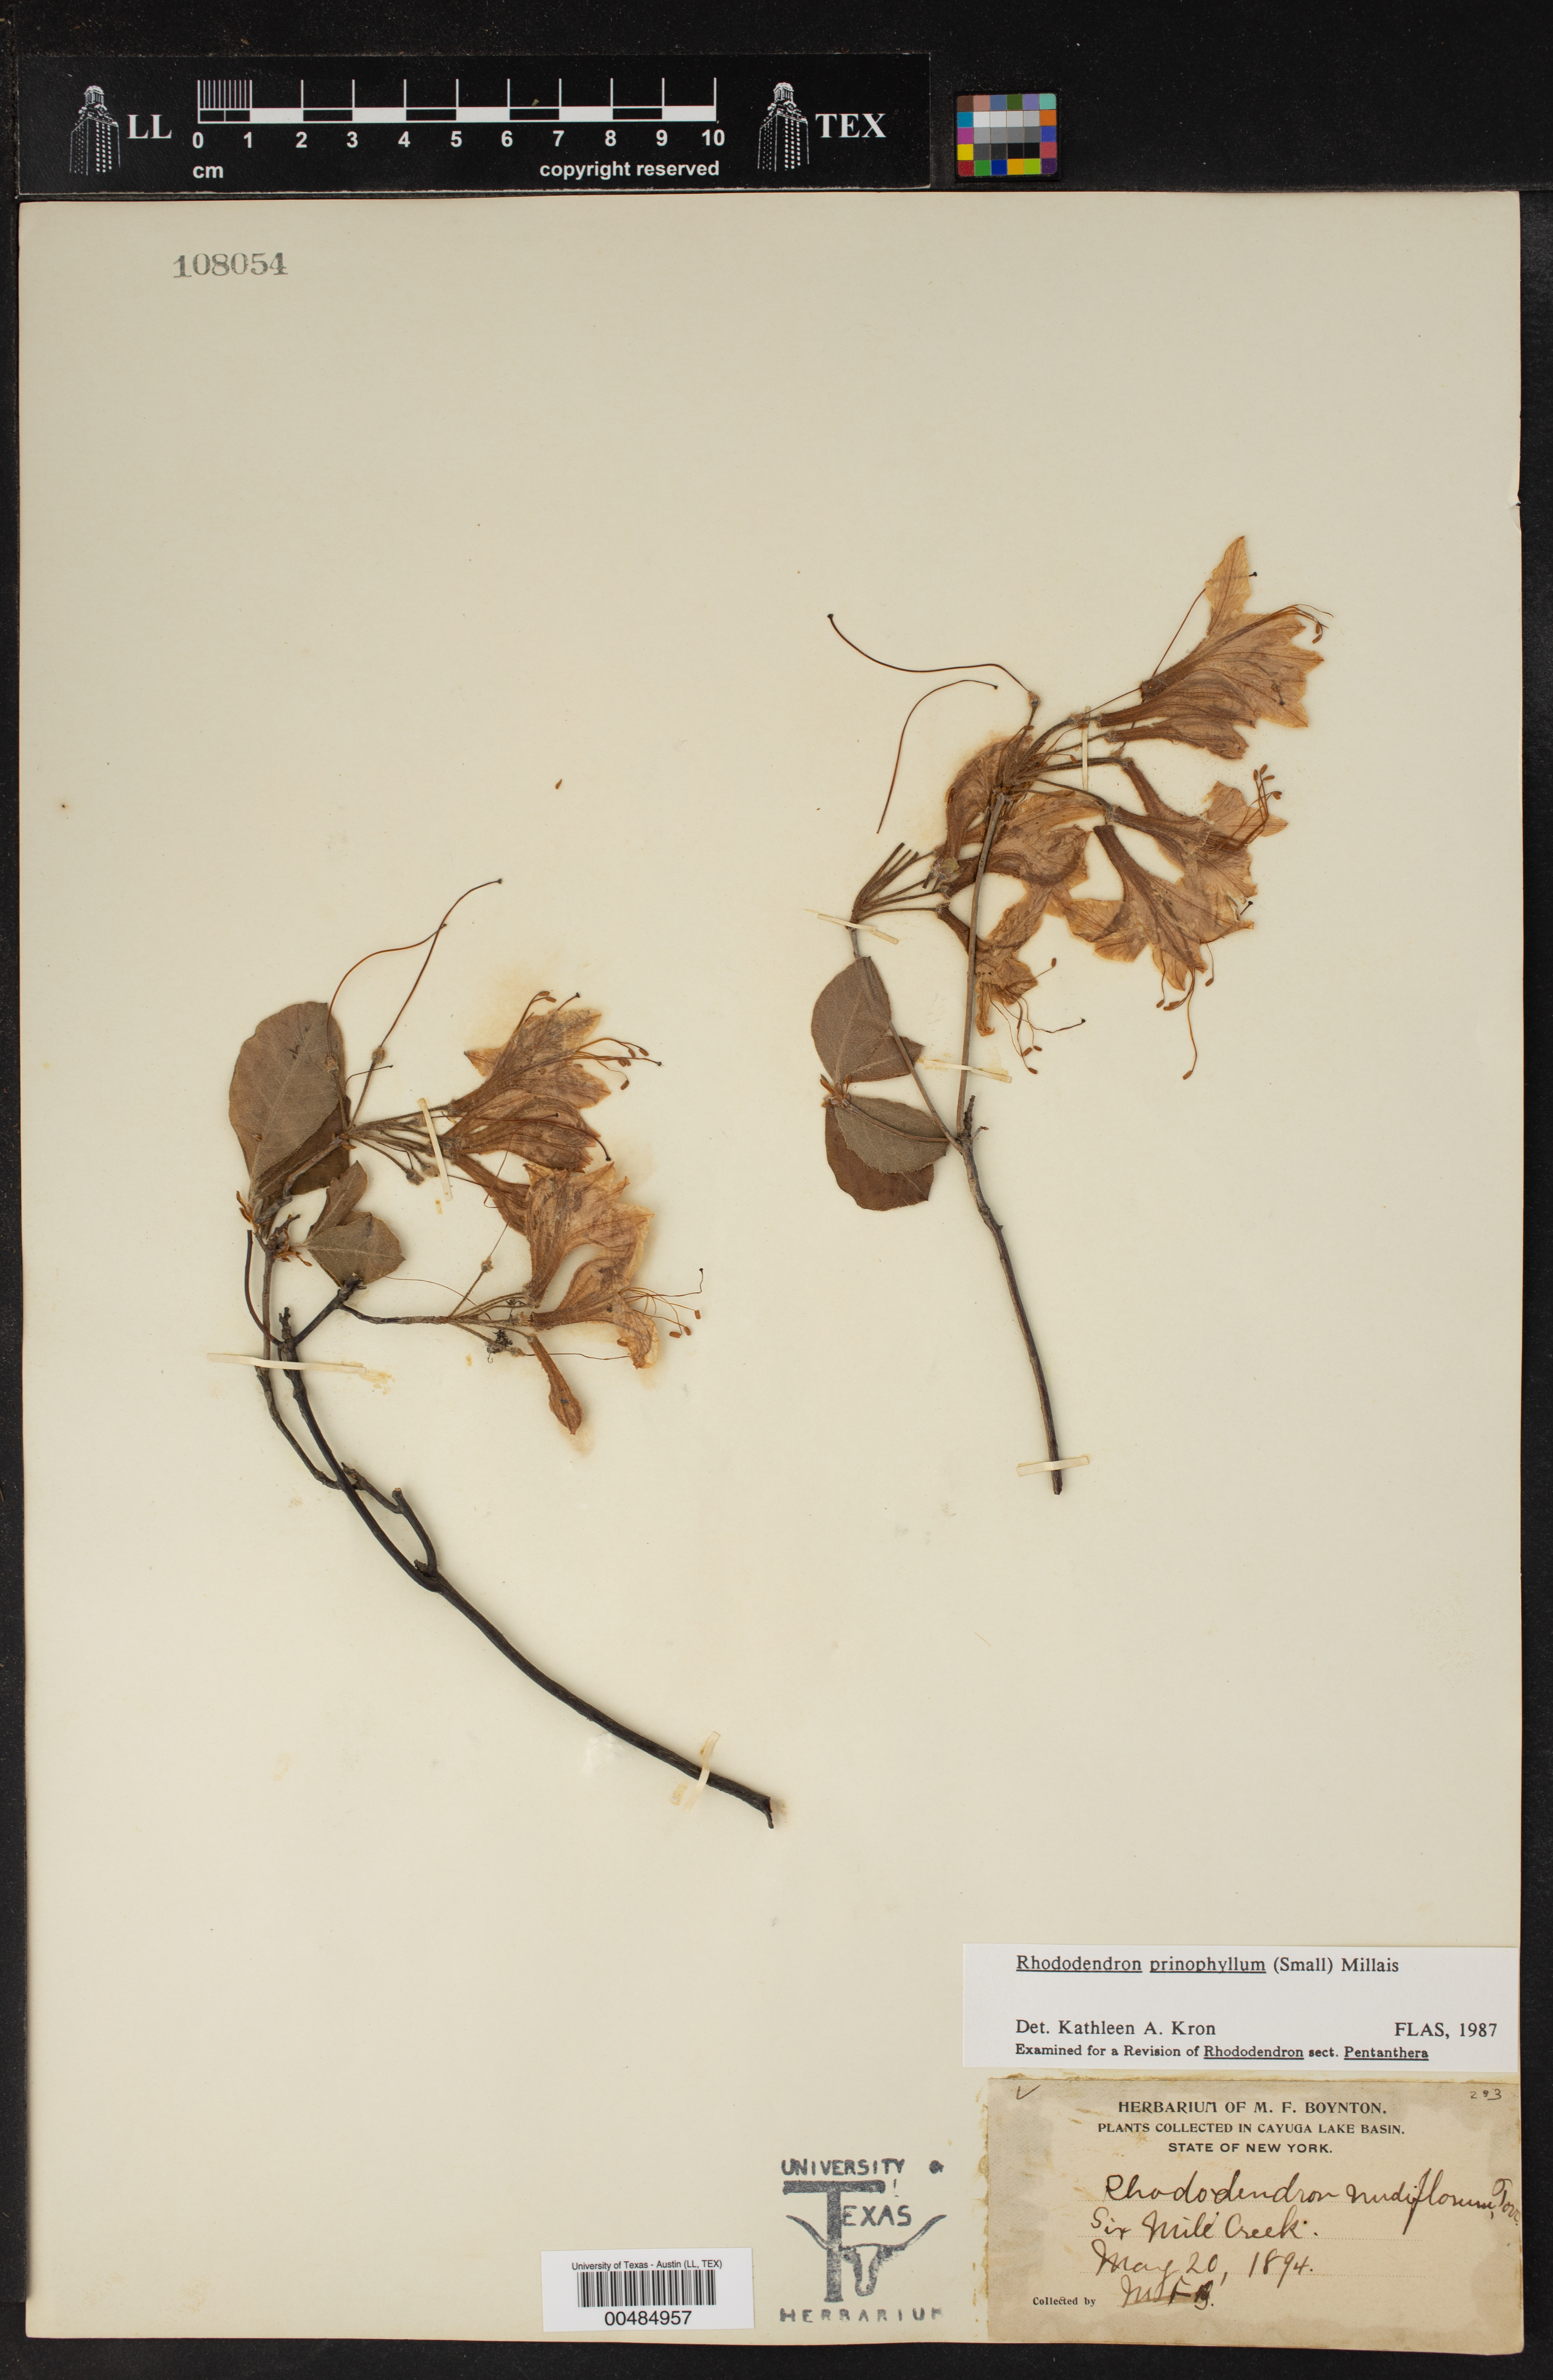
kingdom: Plantae
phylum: Tracheophyta
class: Magnoliopsida
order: Ericales
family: Ericaceae
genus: Rhododendron
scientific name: Rhododendron roseum
